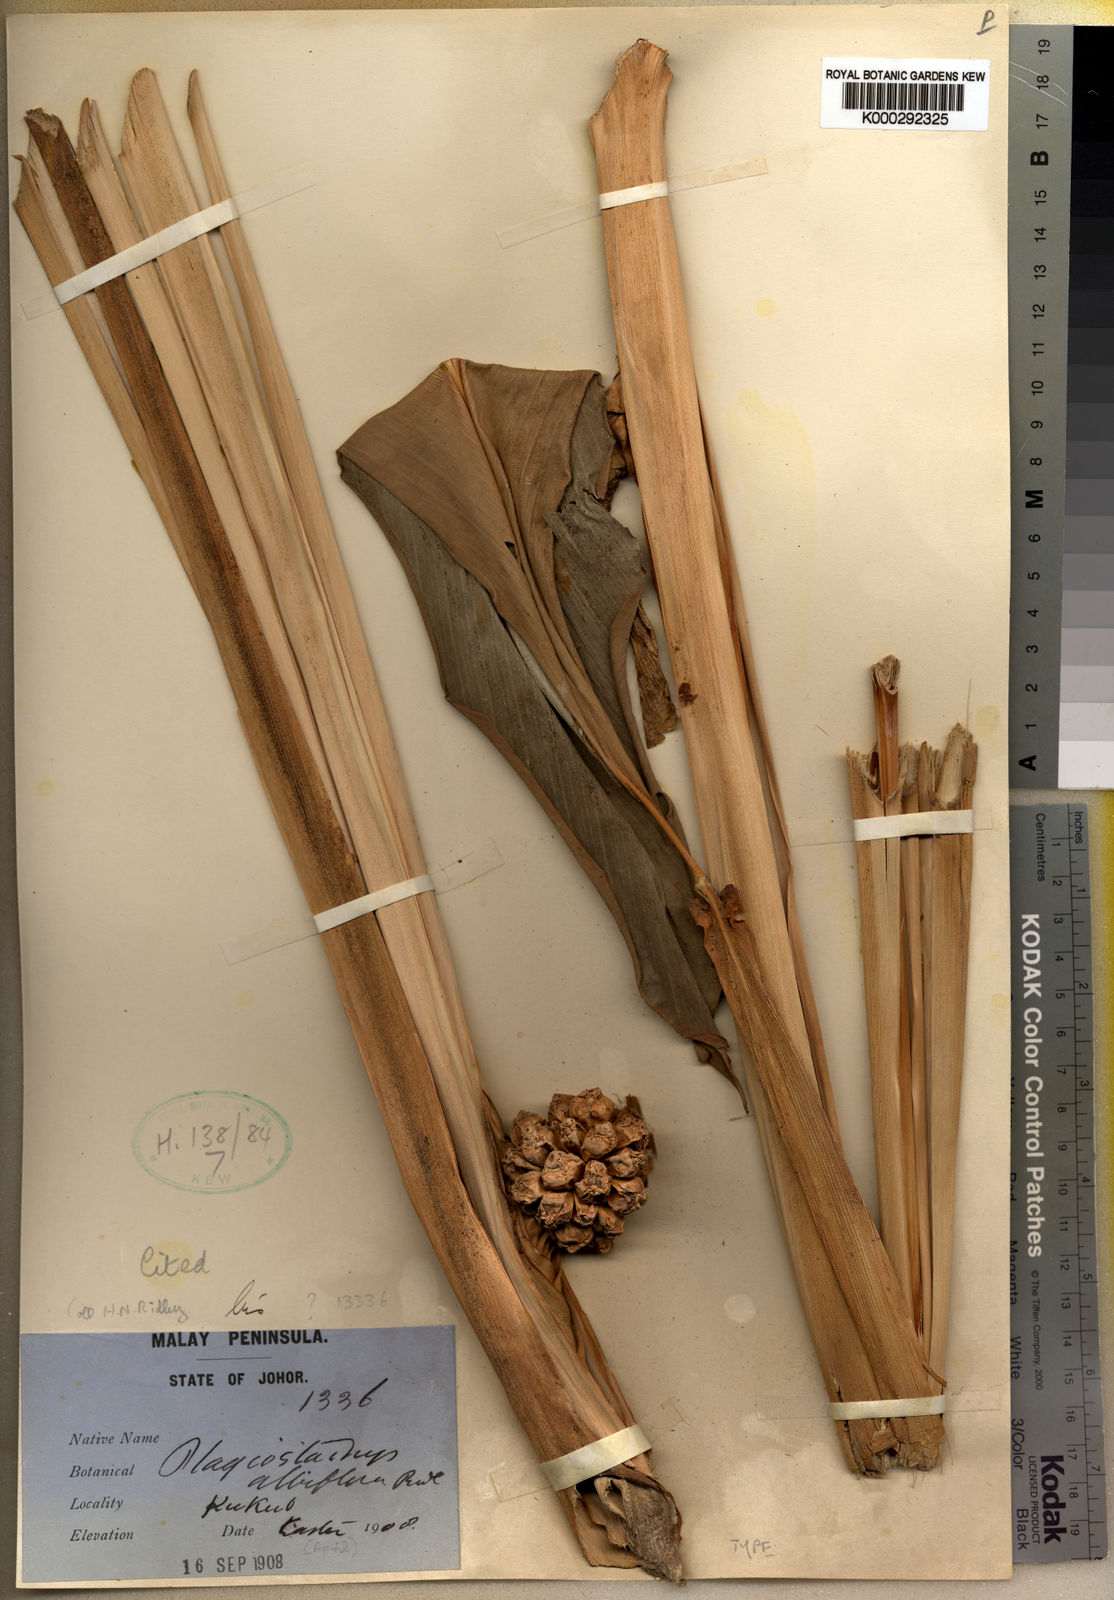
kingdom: Plantae
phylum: Tracheophyta
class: Liliopsida
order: Zingiberales
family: Zingiberaceae
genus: Plagiostachys
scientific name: Plagiostachys albiflora
